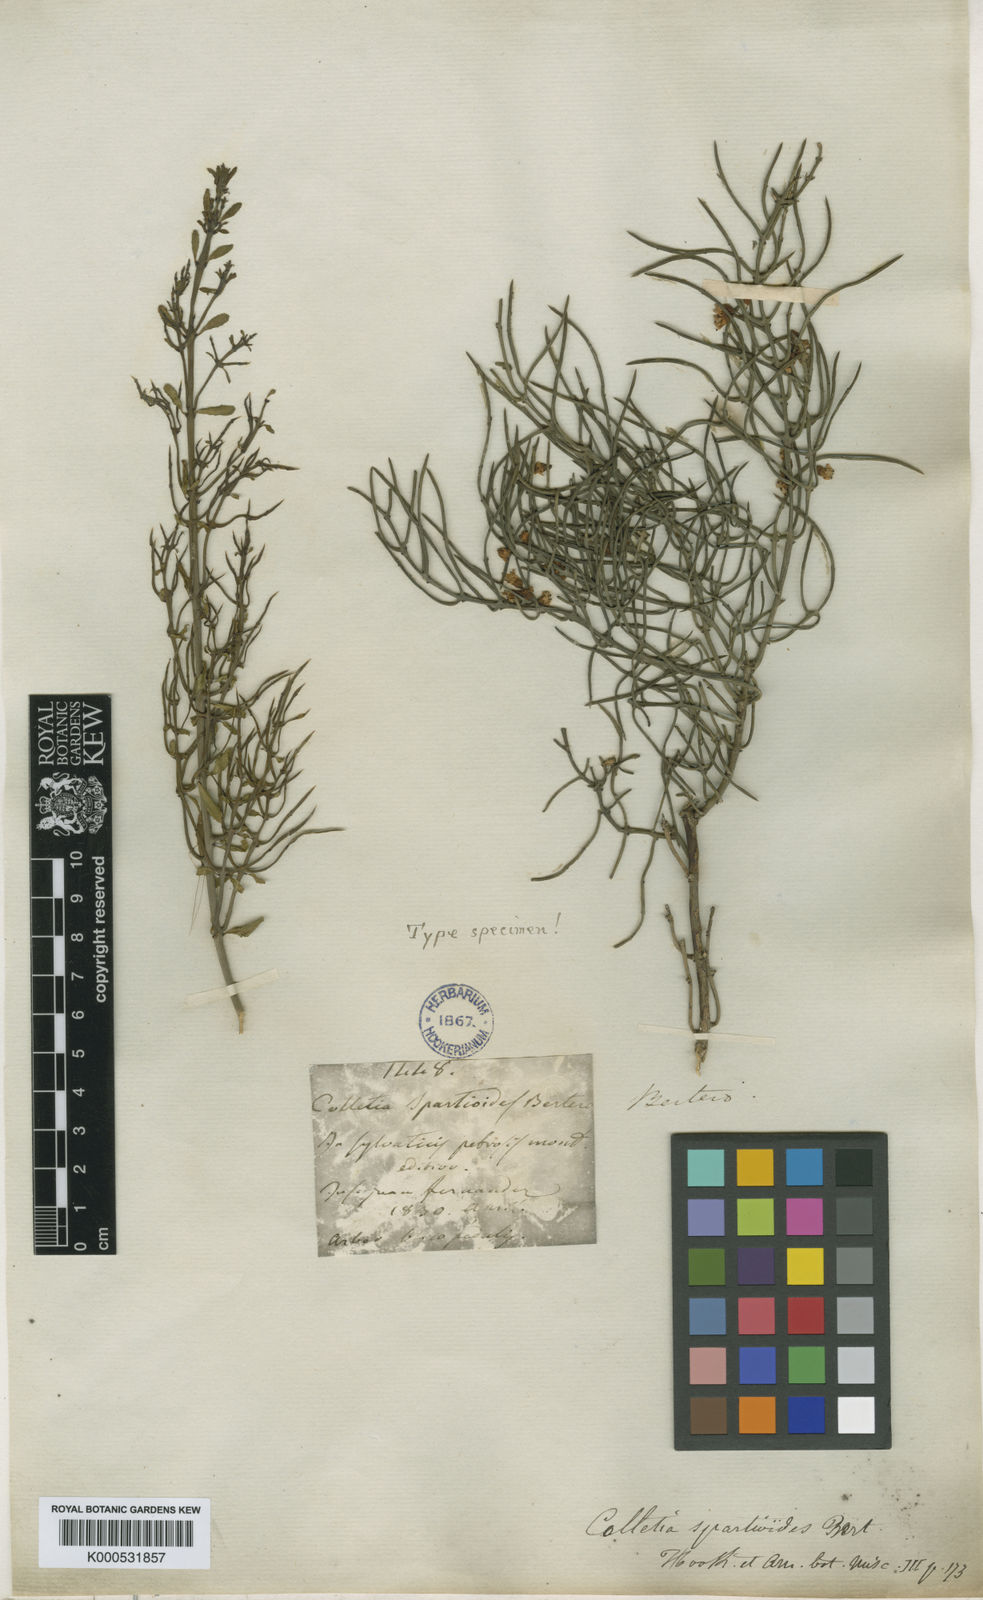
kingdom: Plantae
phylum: Tracheophyta
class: Magnoliopsida
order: Rosales
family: Rhamnaceae
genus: Colletia
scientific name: Colletia
